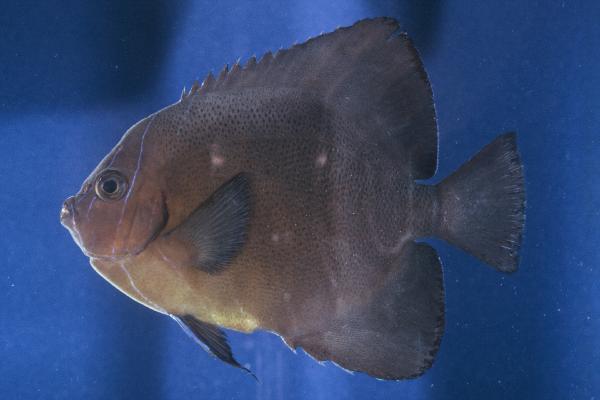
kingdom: Animalia
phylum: Chordata
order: Perciformes
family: Pomacanthidae
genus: Pomacanthus
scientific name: Pomacanthus rhomboides
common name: Old woman
